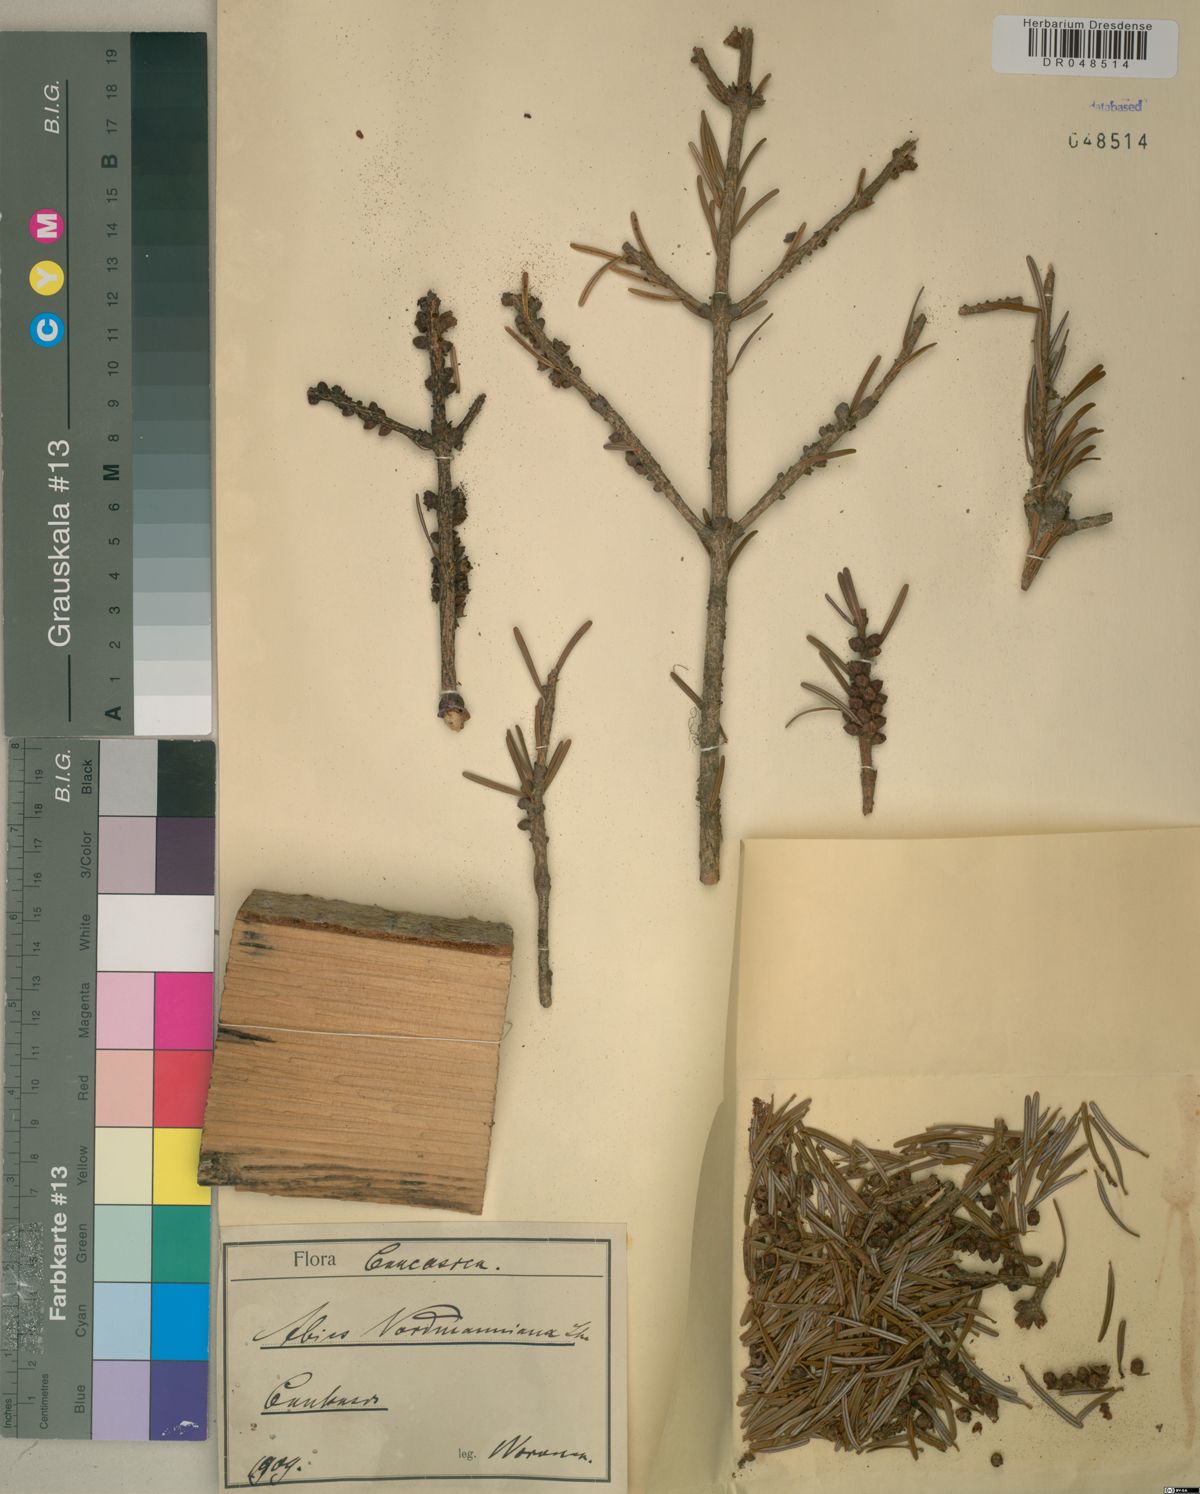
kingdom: Plantae
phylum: Tracheophyta
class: Pinopsida
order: Pinales
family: Pinaceae
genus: Abies
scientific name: Abies nordmanniana
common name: Caucasian fir
